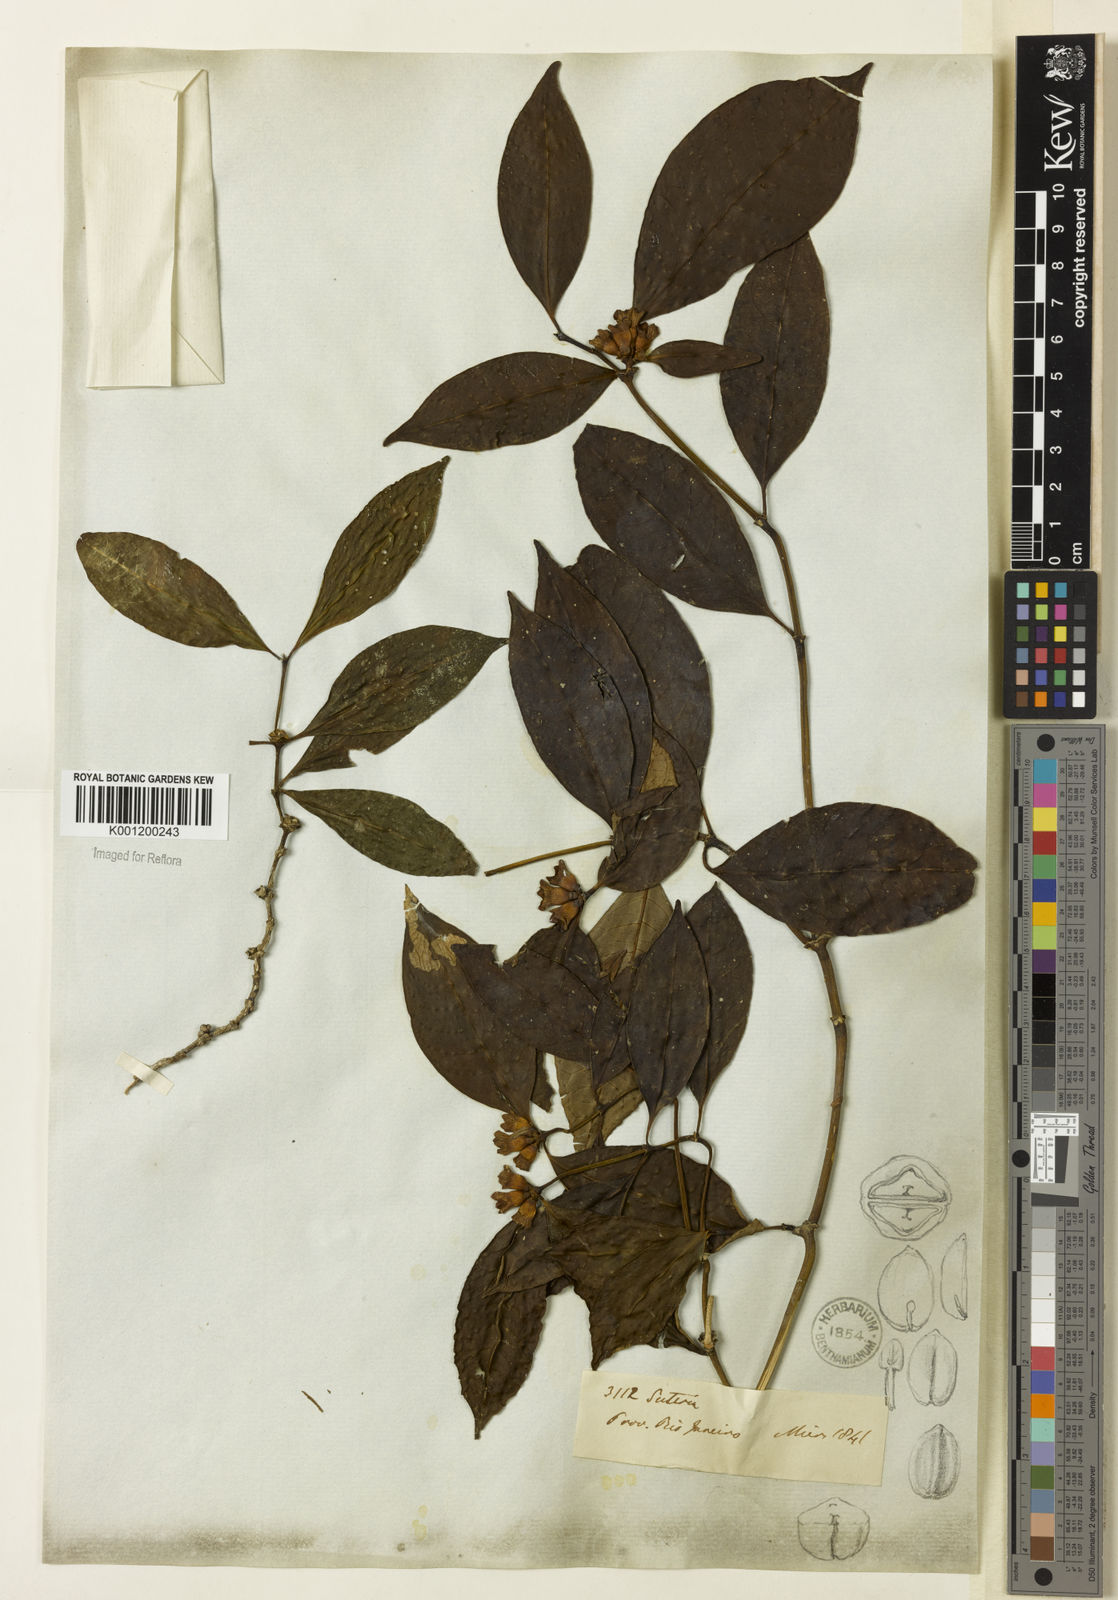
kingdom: Plantae
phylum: Tracheophyta
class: Magnoliopsida
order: Gentianales
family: Rubiaceae
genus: Psychotria
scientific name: Psychotria
